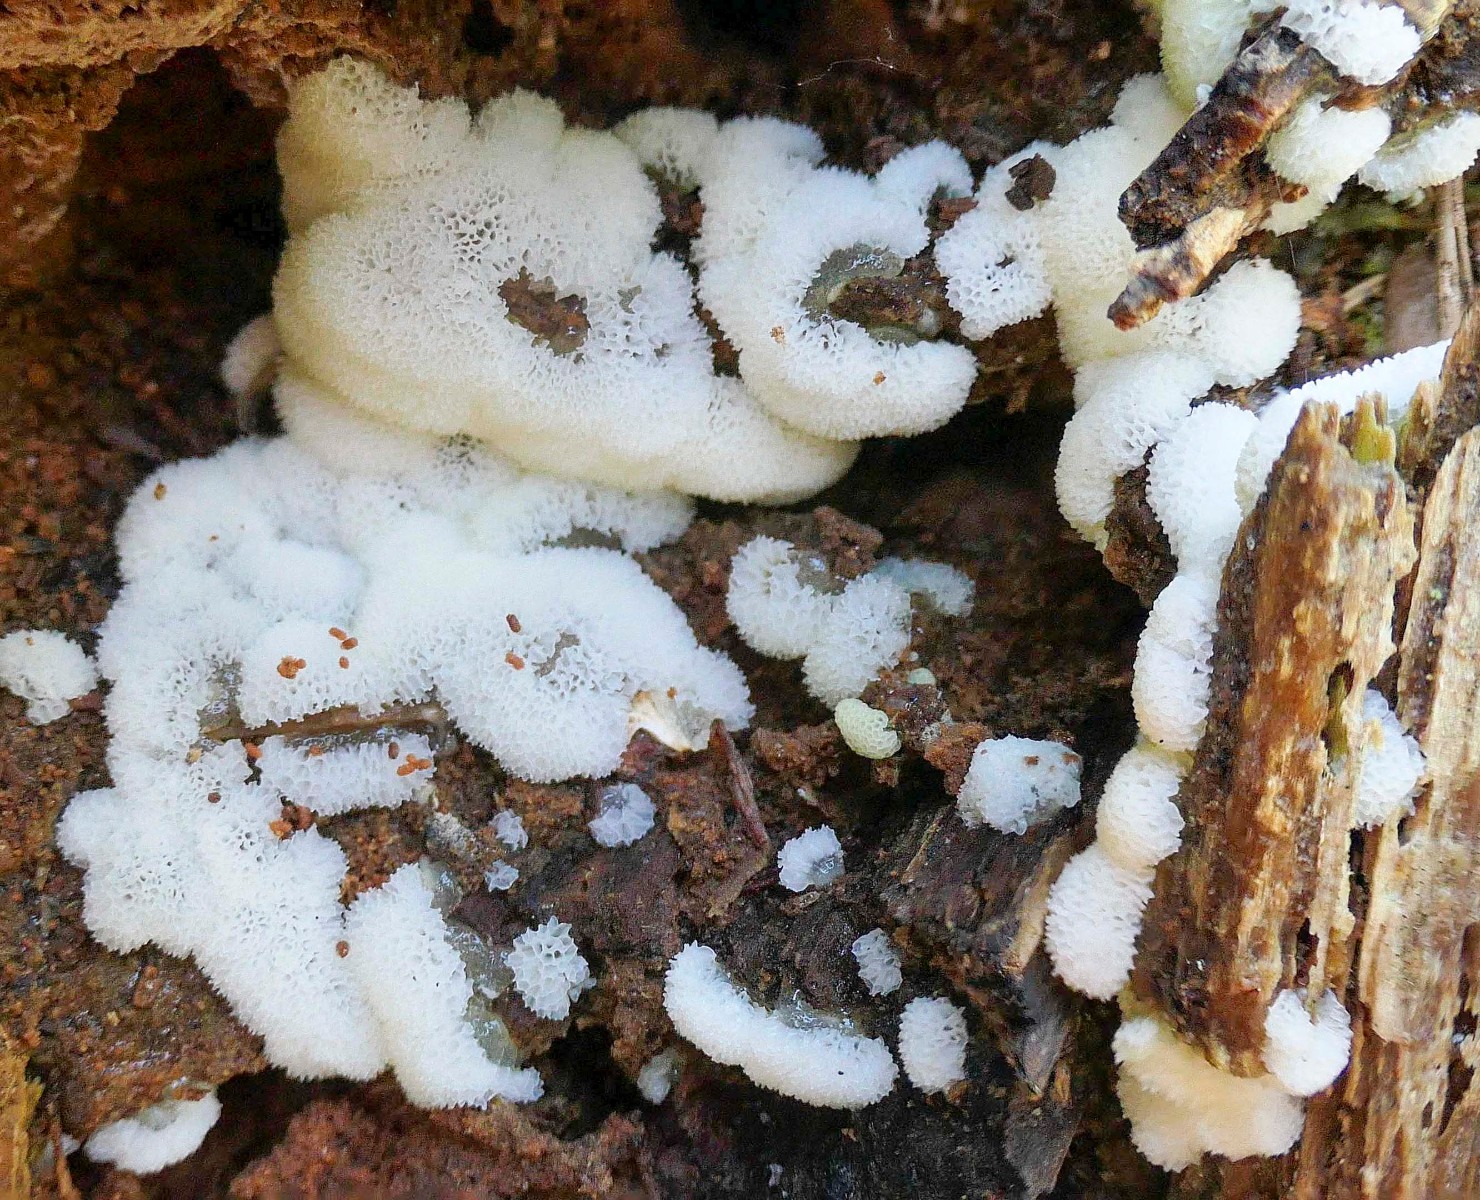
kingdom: Protozoa
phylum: Mycetozoa
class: Protosteliomycetes
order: Ceratiomyxales
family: Ceratiomyxaceae
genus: Ceratiomyxa
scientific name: Ceratiomyxa fruticulosa
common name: Honeycomb coral slime mold
